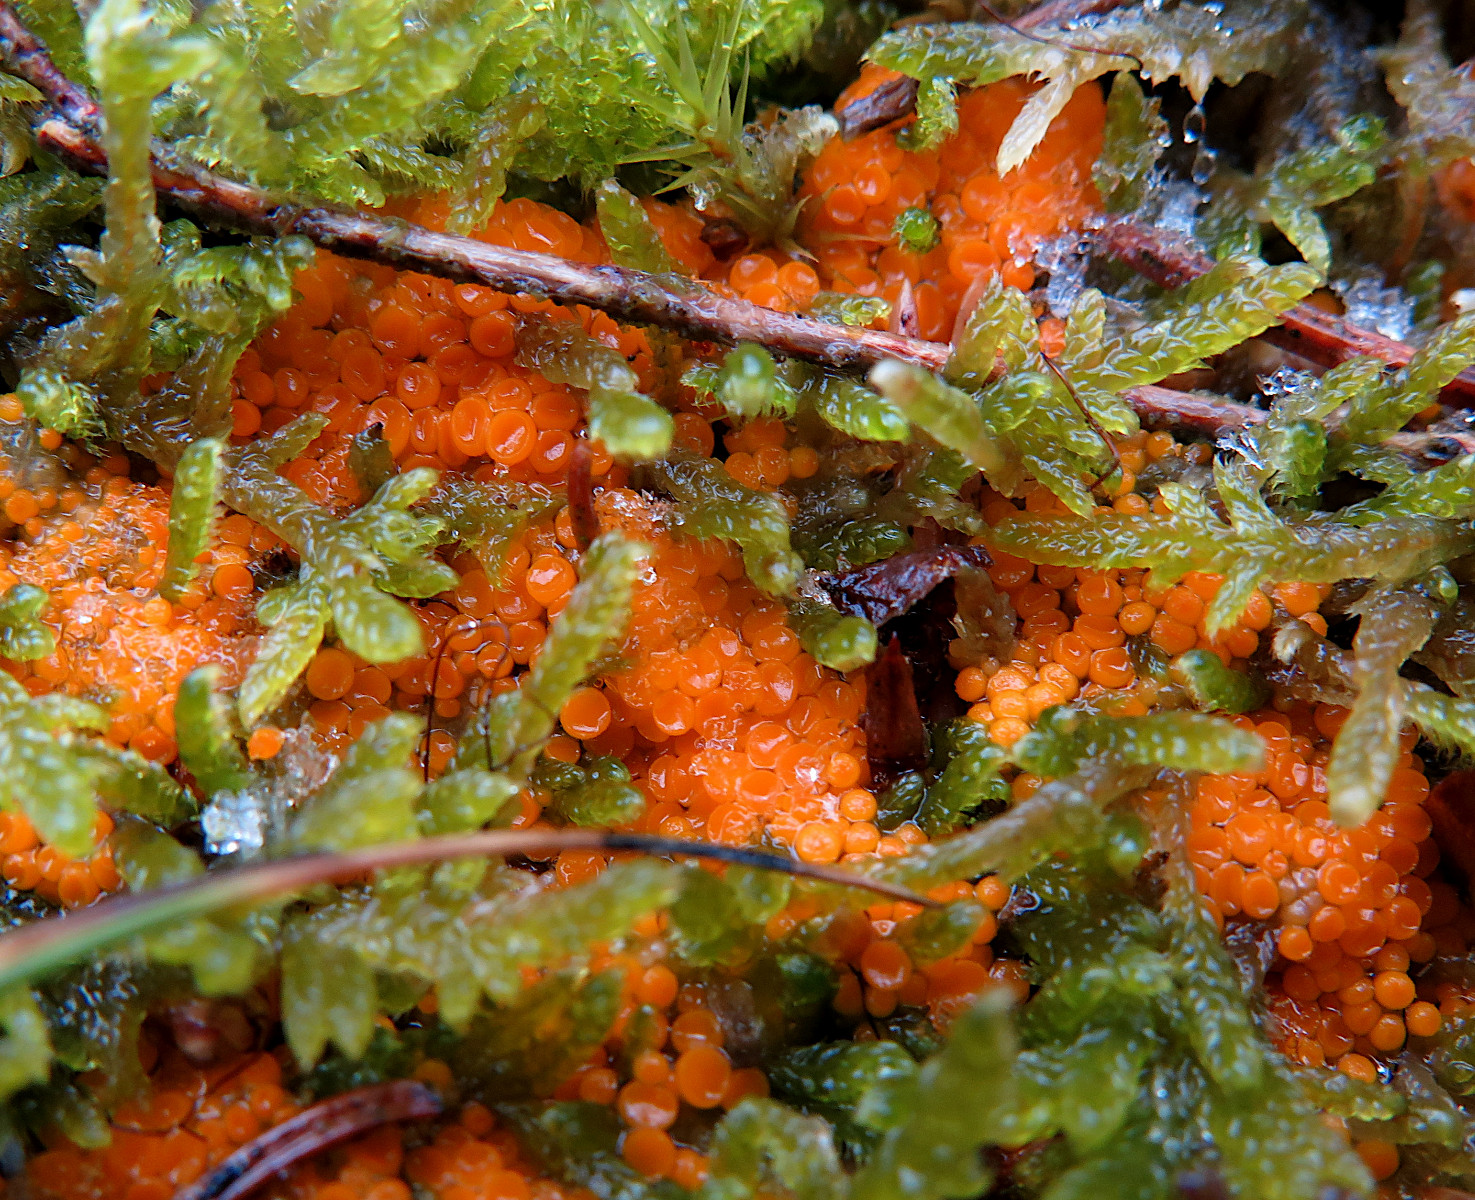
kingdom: Fungi
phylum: Ascomycota
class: Pezizomycetes
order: Pezizales
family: Pyronemataceae
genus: Byssonectria
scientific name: Byssonectria terrestris
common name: hjortebæger
